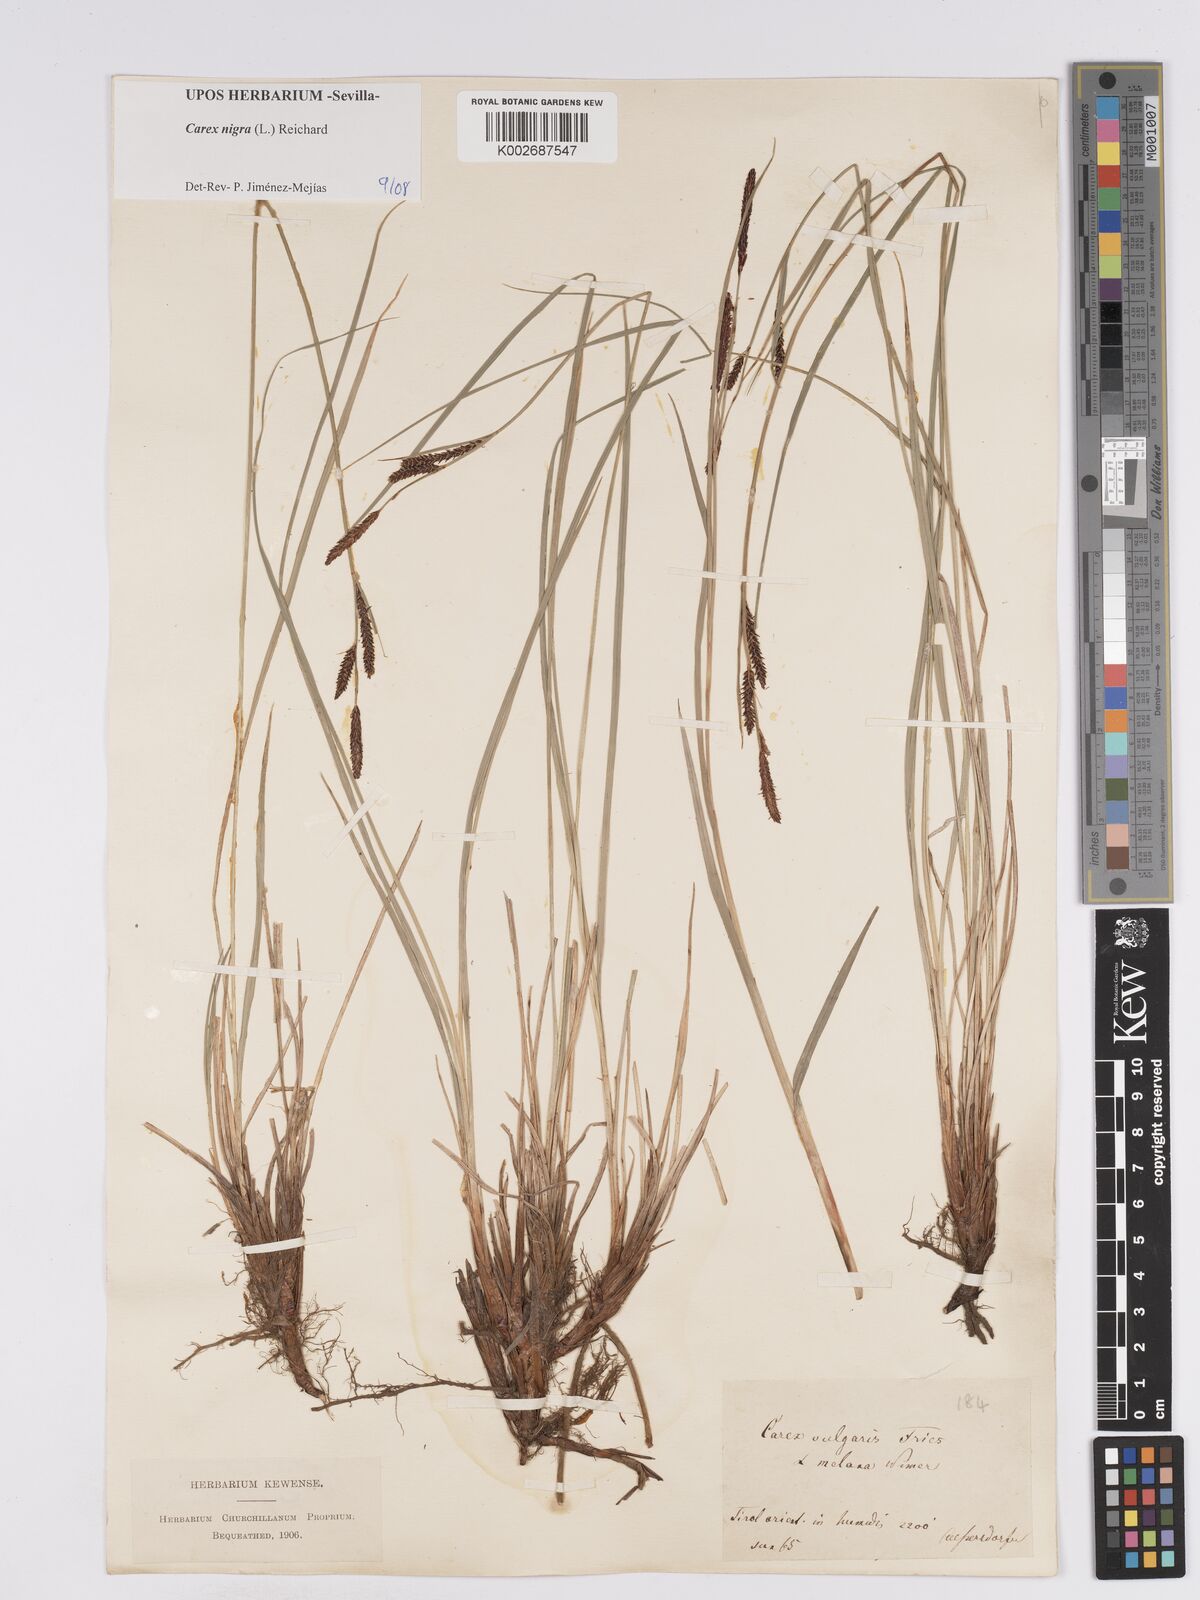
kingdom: Plantae
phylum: Tracheophyta
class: Liliopsida
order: Poales
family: Cyperaceae
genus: Carex
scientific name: Carex nigra
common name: Common sedge
